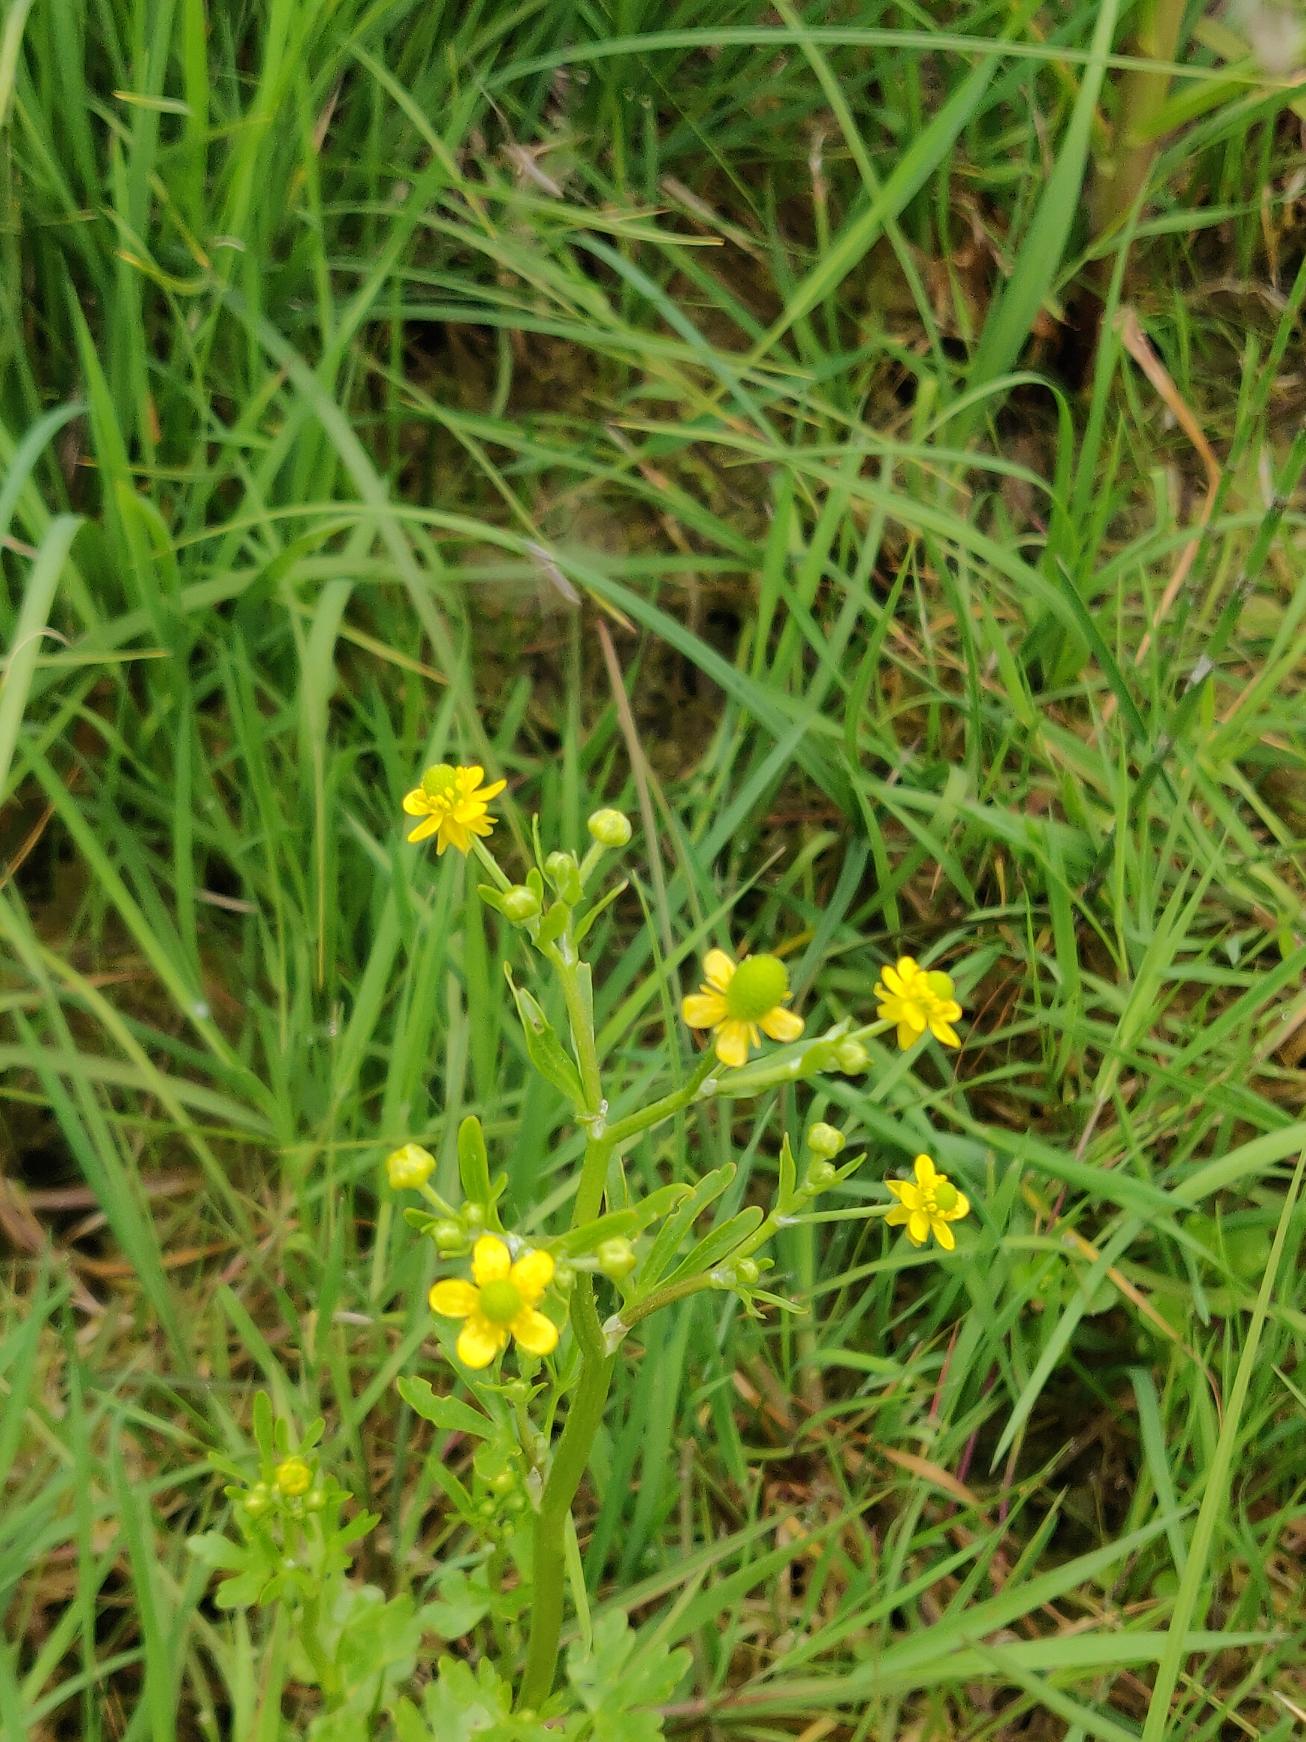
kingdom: Plantae
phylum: Tracheophyta
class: Magnoliopsida
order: Ranunculales
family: Ranunculaceae
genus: Ranunculus
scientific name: Ranunculus sceleratus
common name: Tigger-ranunkel
